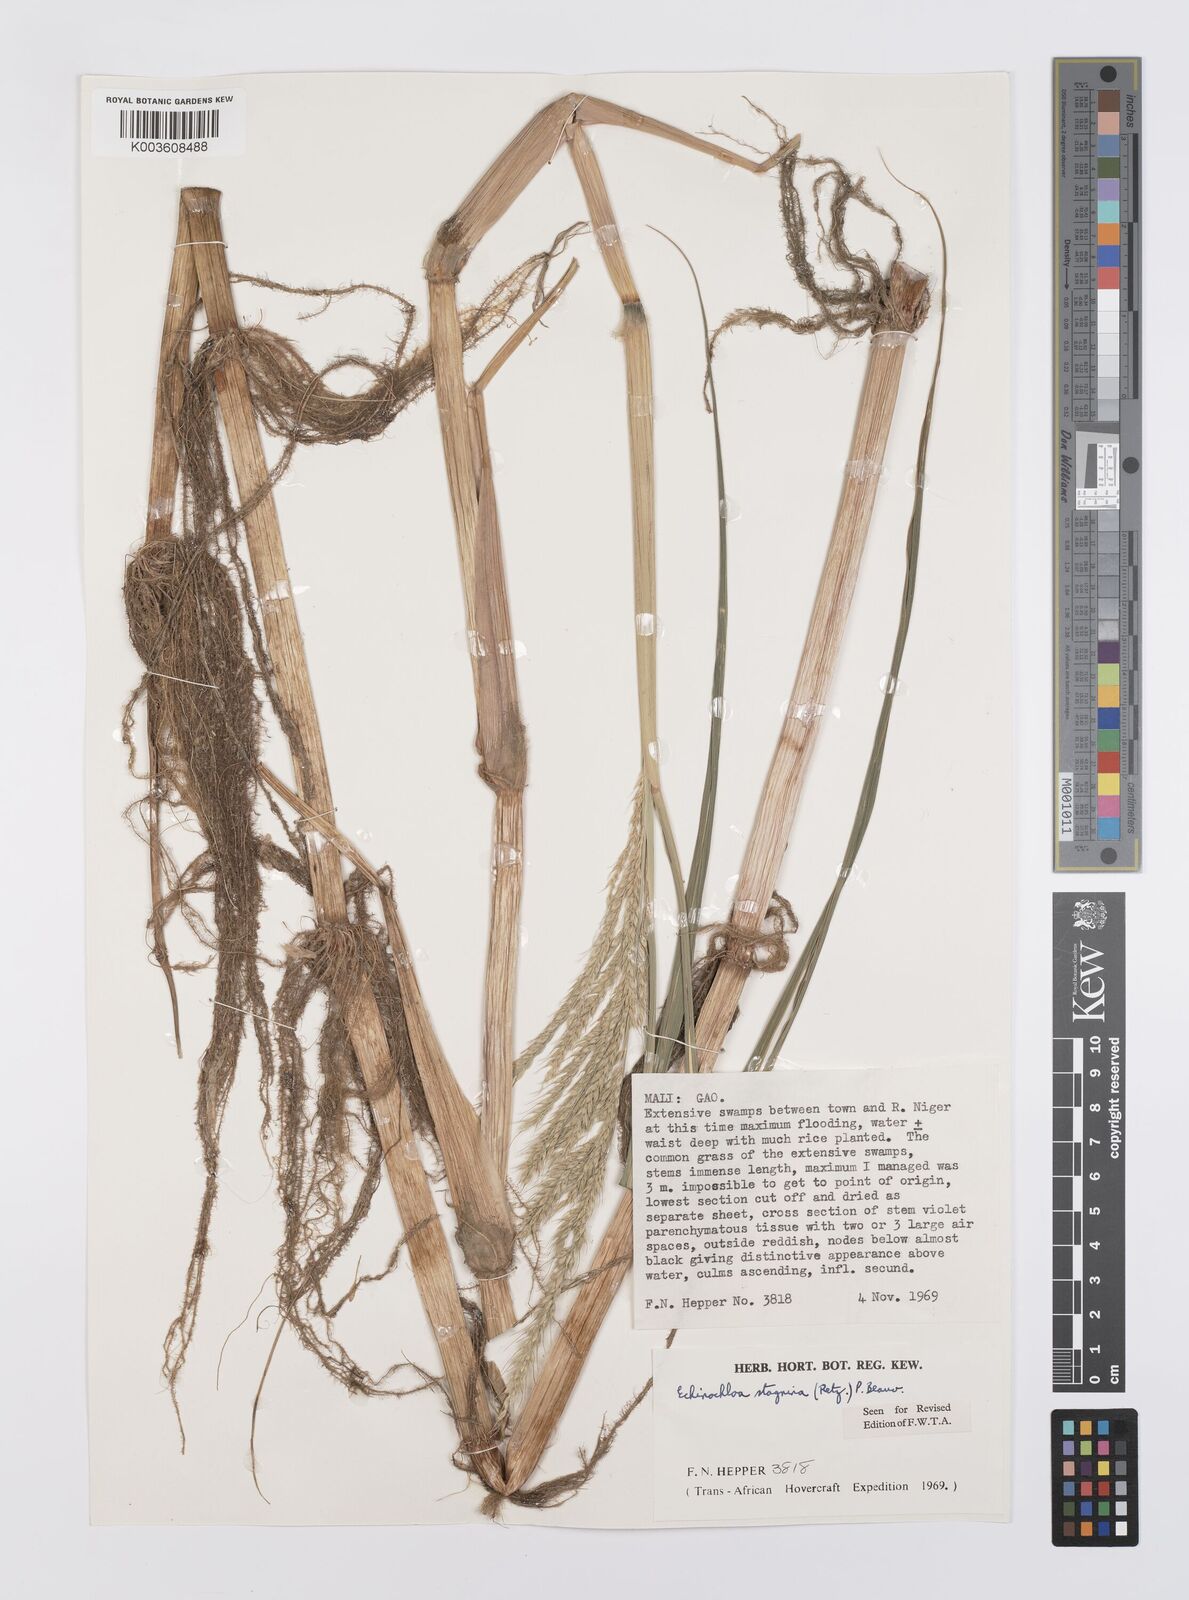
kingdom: Plantae
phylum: Tracheophyta
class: Liliopsida
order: Poales
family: Poaceae
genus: Echinochloa
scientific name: Echinochloa stagnina
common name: Burgu grass
